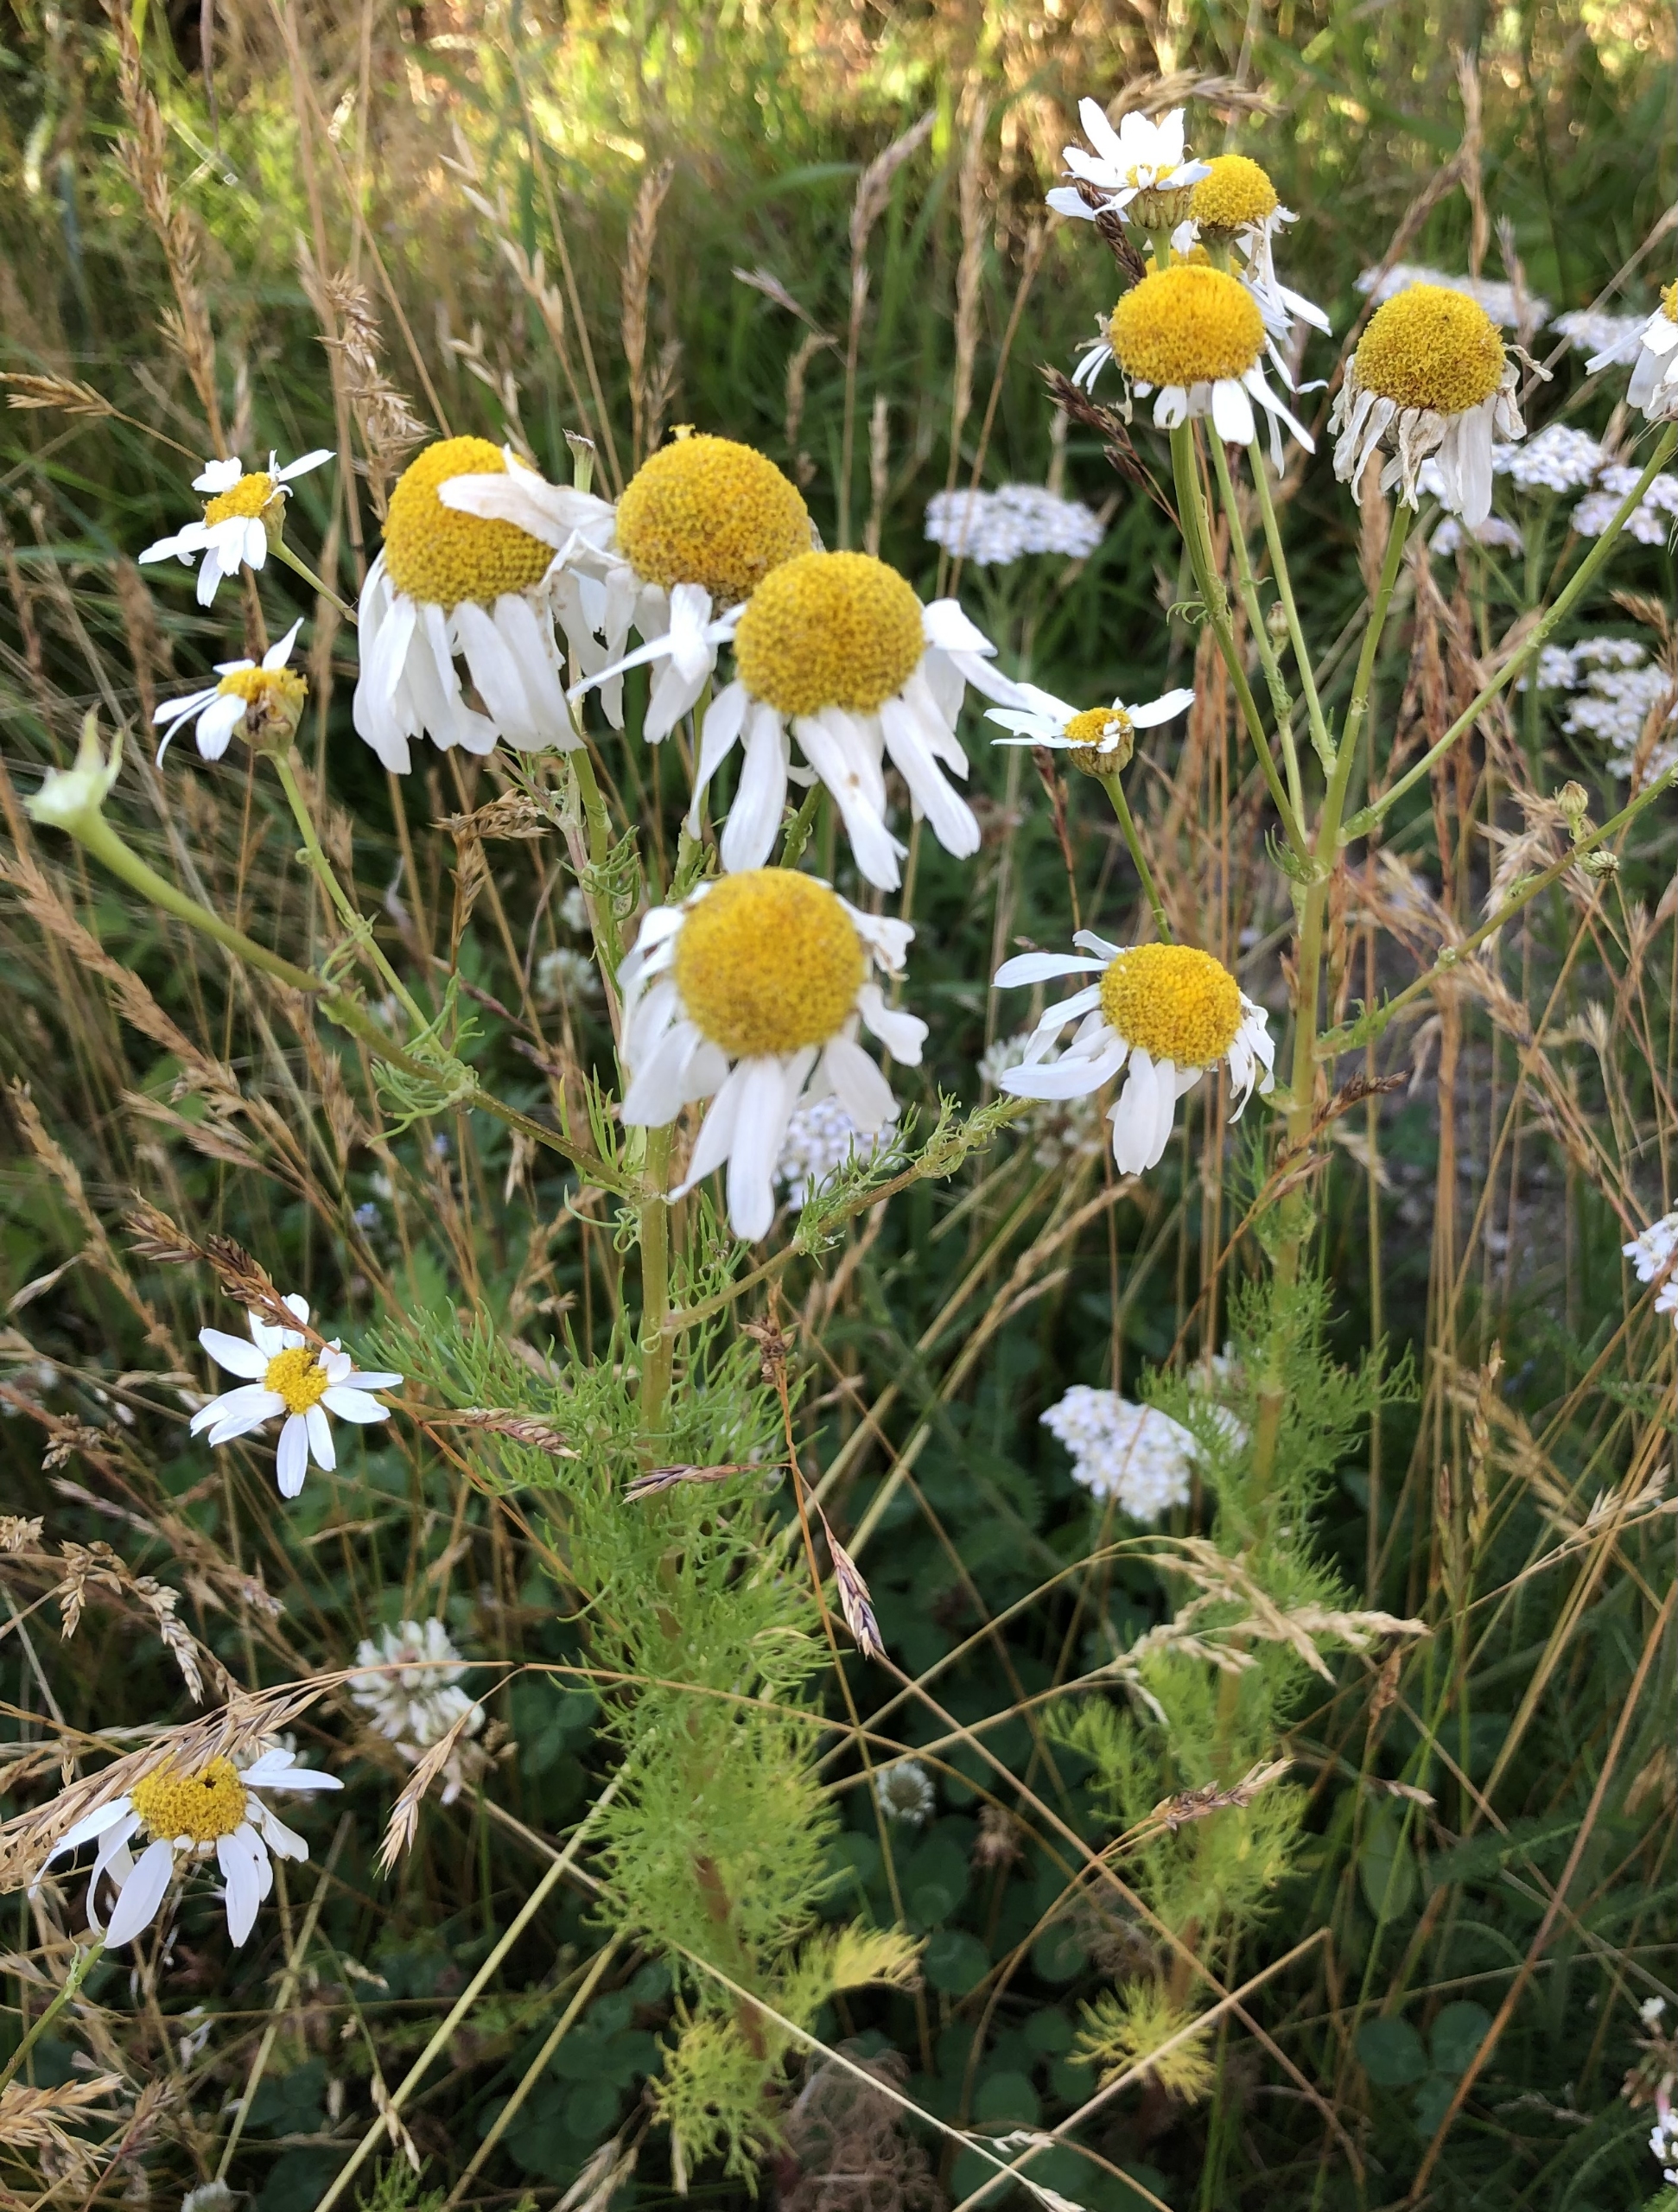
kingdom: Plantae
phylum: Tracheophyta
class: Magnoliopsida
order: Asterales
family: Asteraceae
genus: Tripleurospermum
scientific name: Tripleurospermum inodorum
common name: Lugtløs kamille
